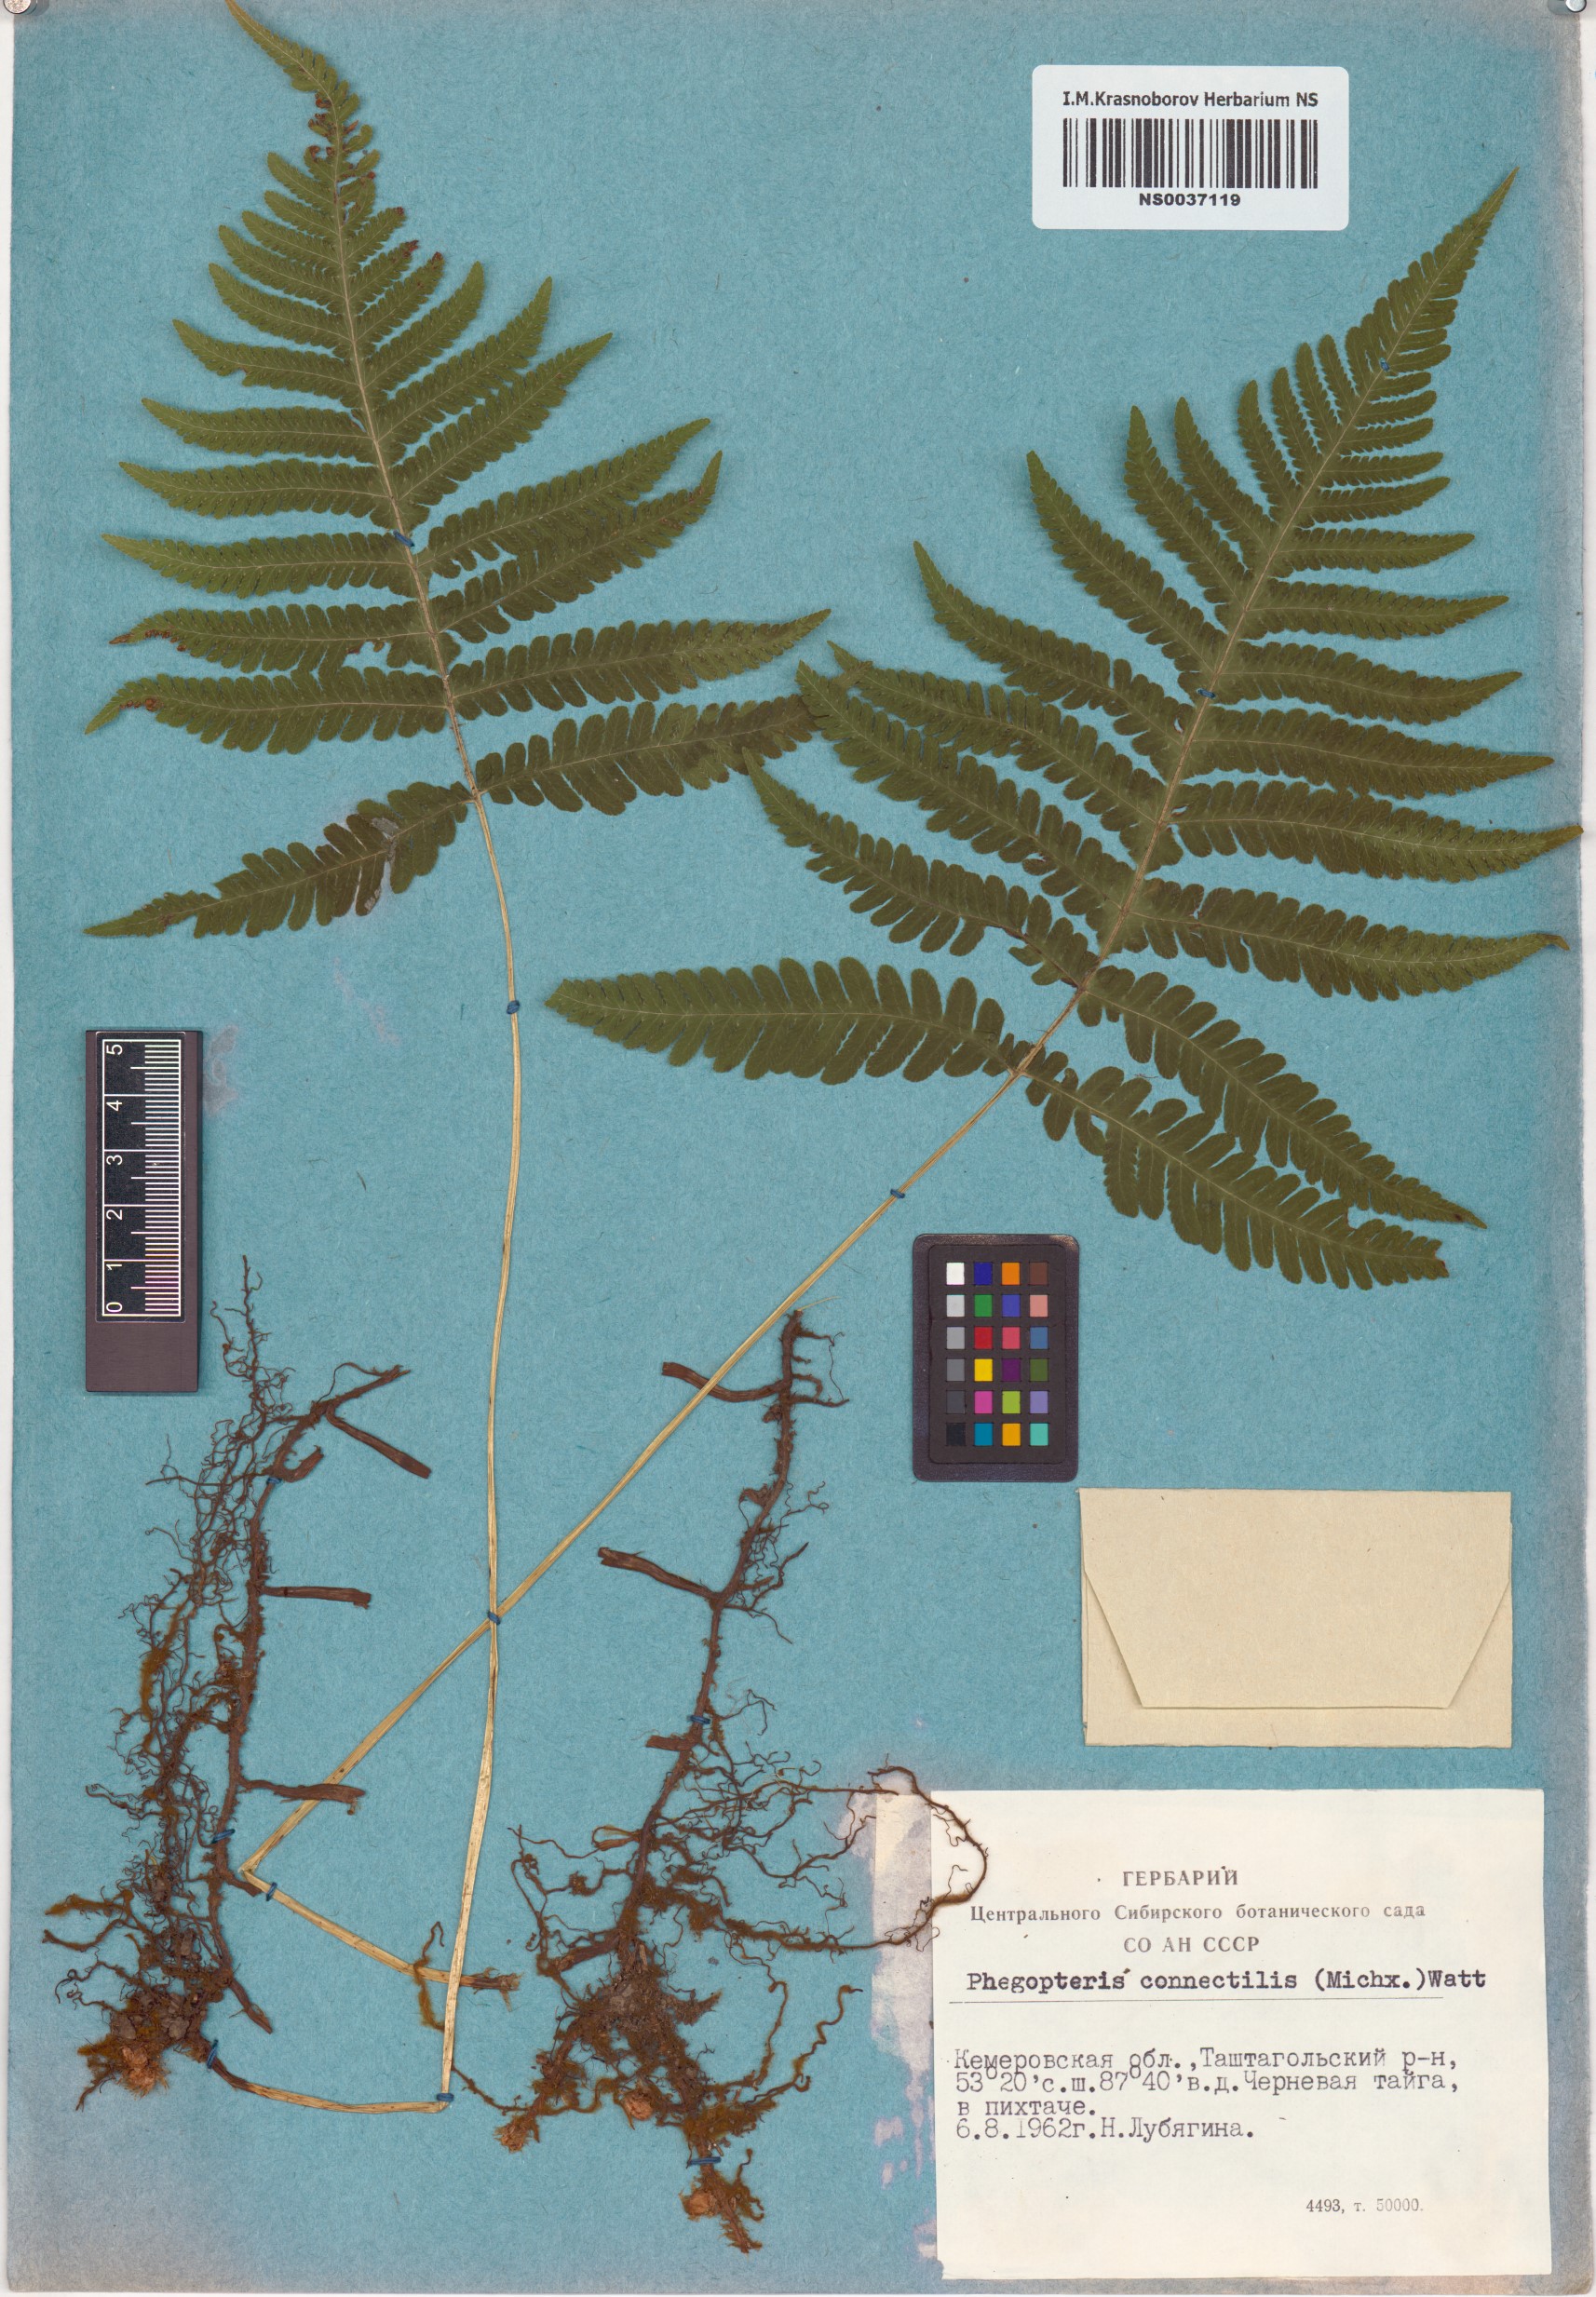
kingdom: Plantae
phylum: Tracheophyta
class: Polypodiopsida
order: Polypodiales
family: Thelypteridaceae
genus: Phegopteris
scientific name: Phegopteris connectilis
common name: Beech fern
